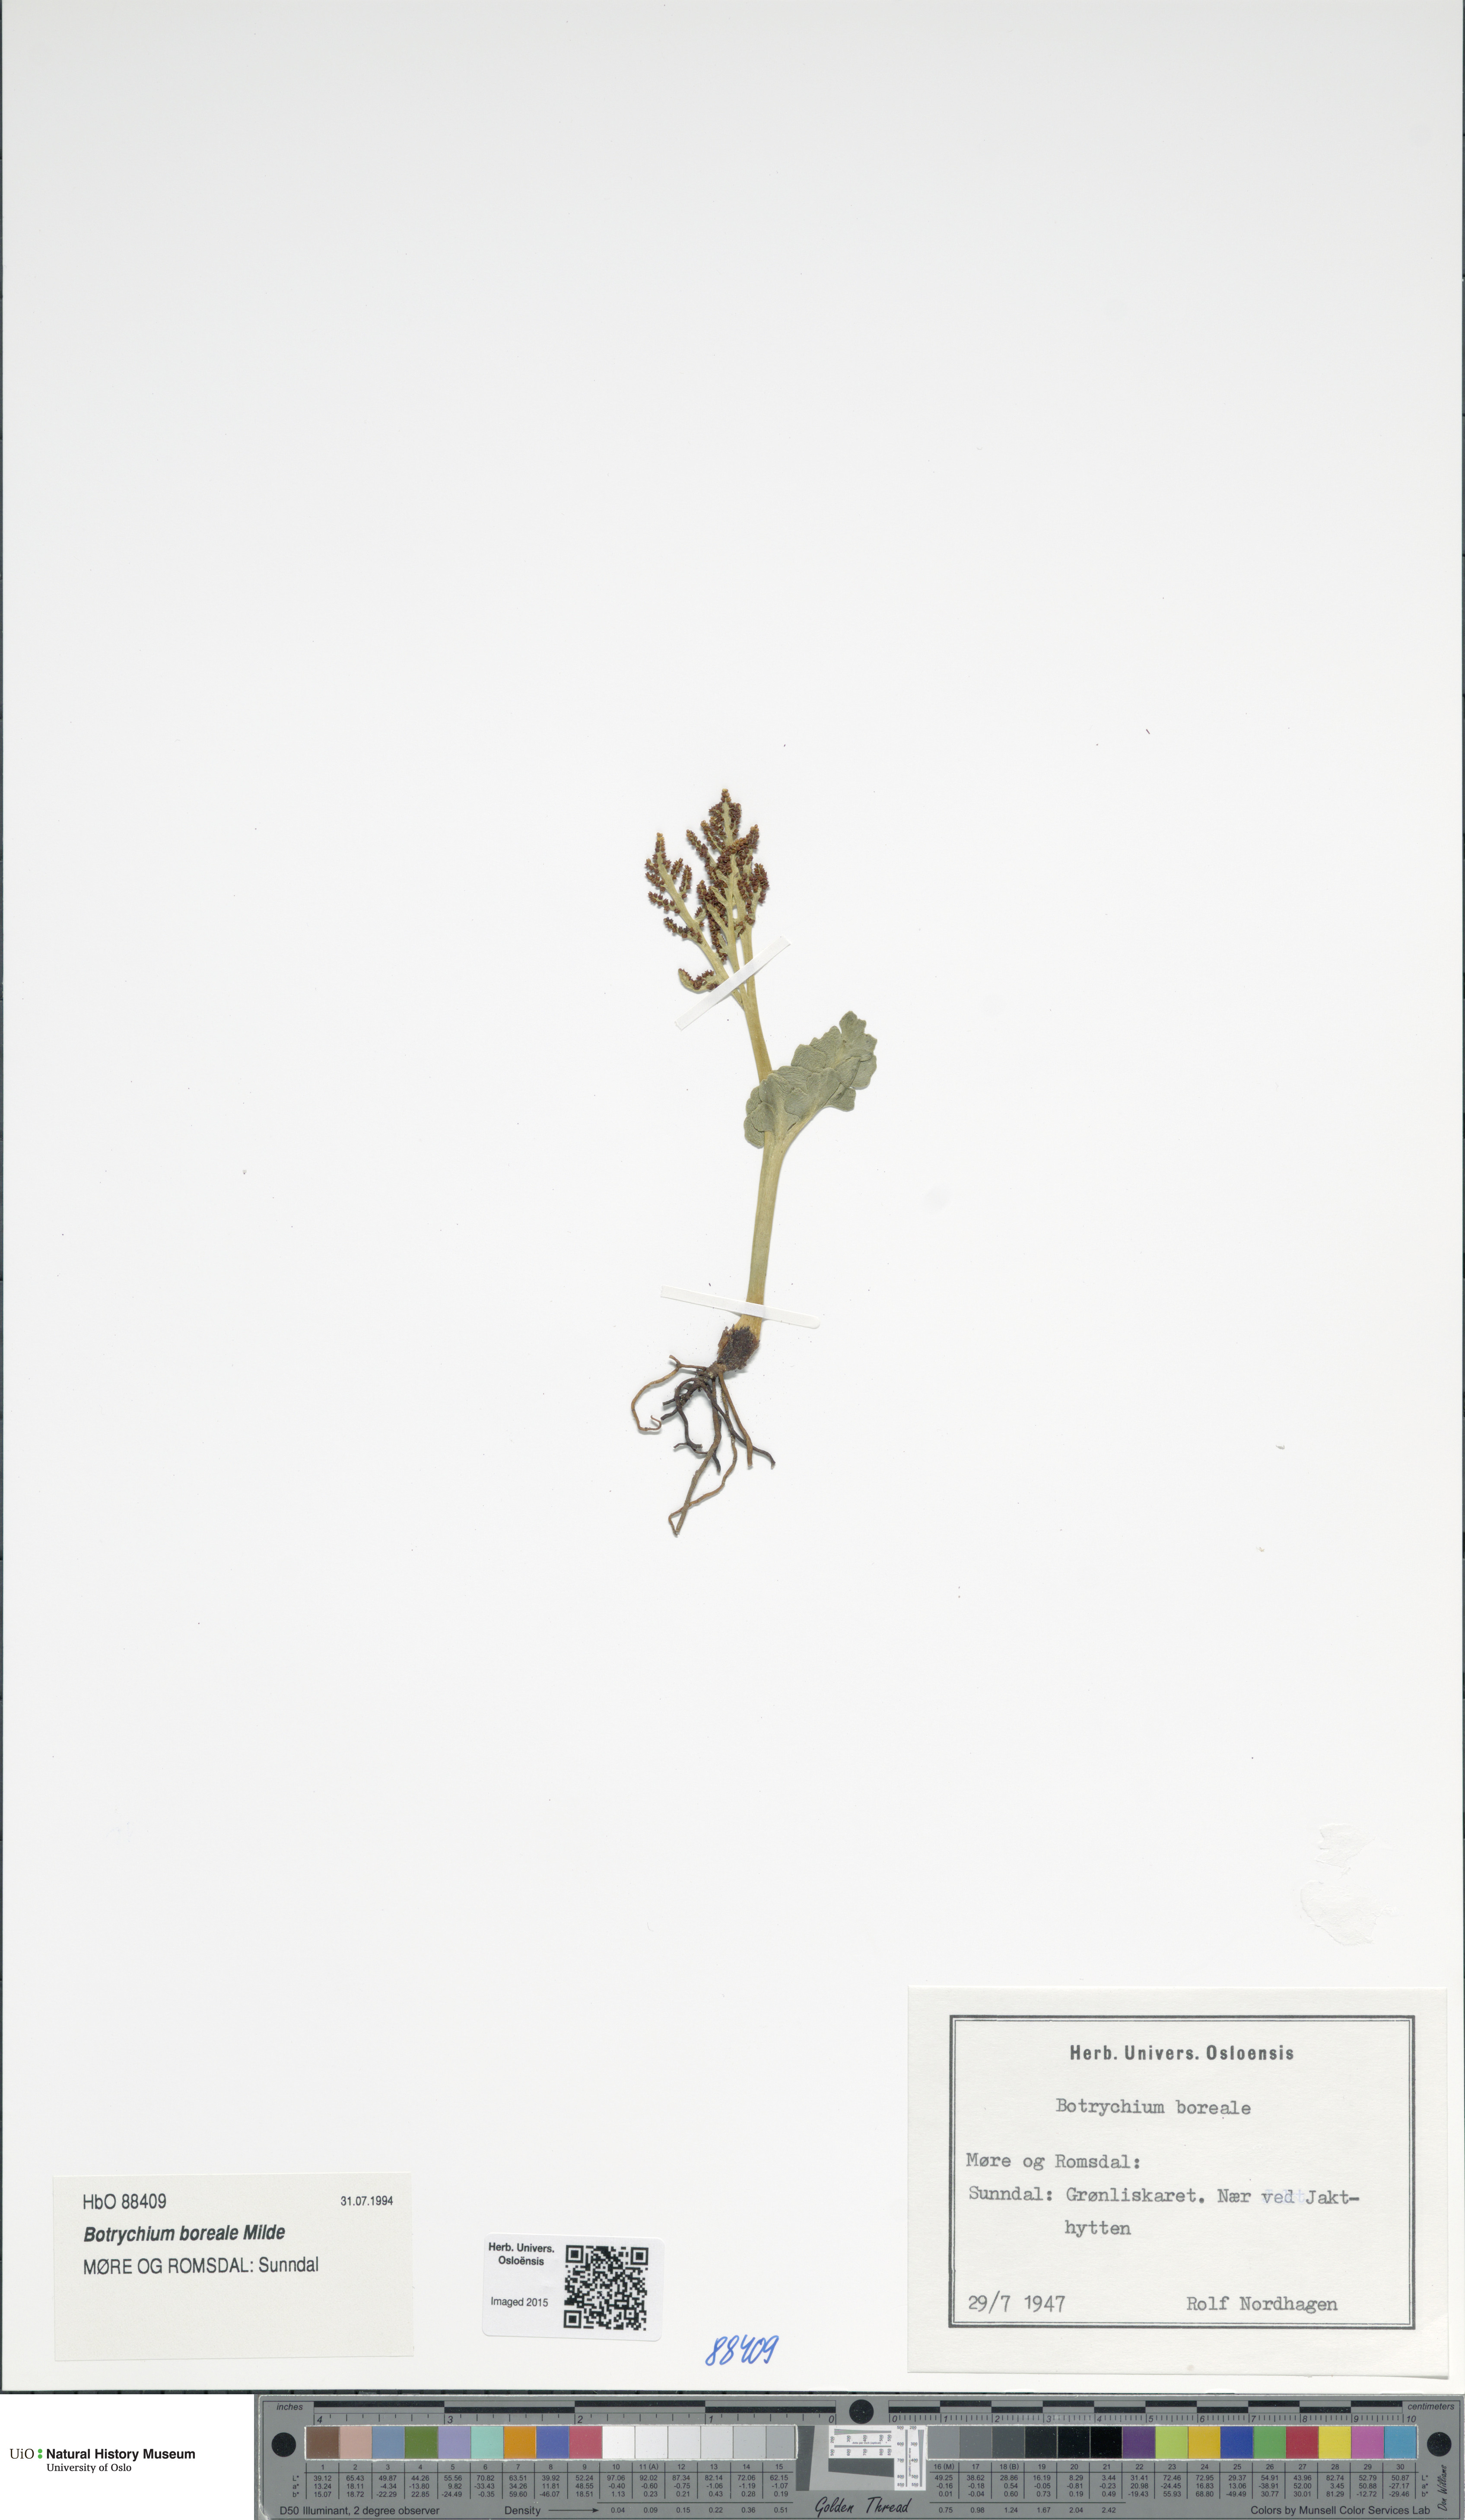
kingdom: Plantae
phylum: Tracheophyta
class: Polypodiopsida
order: Ophioglossales
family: Ophioglossaceae
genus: Botrychium
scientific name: Botrychium boreale
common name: Boreal moonwort
